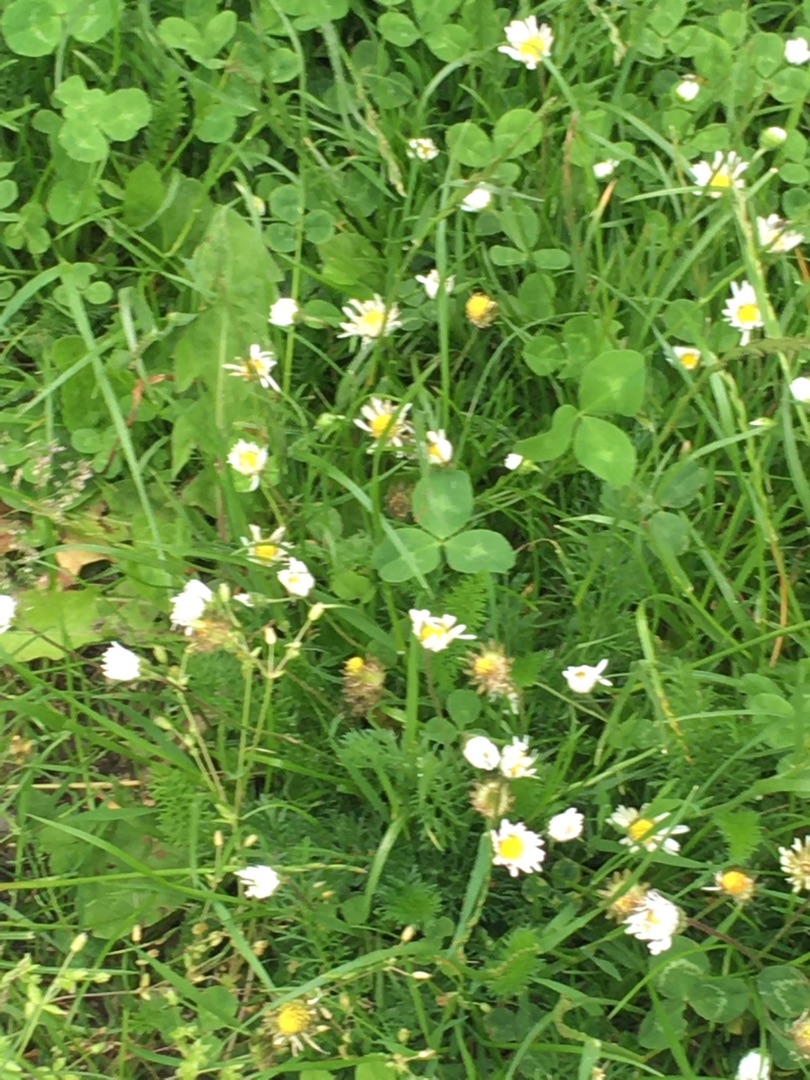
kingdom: Plantae
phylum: Tracheophyta
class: Magnoliopsida
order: Asterales
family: Asteraceae
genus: Bellis
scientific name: Bellis perennis
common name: Tusindfryd
